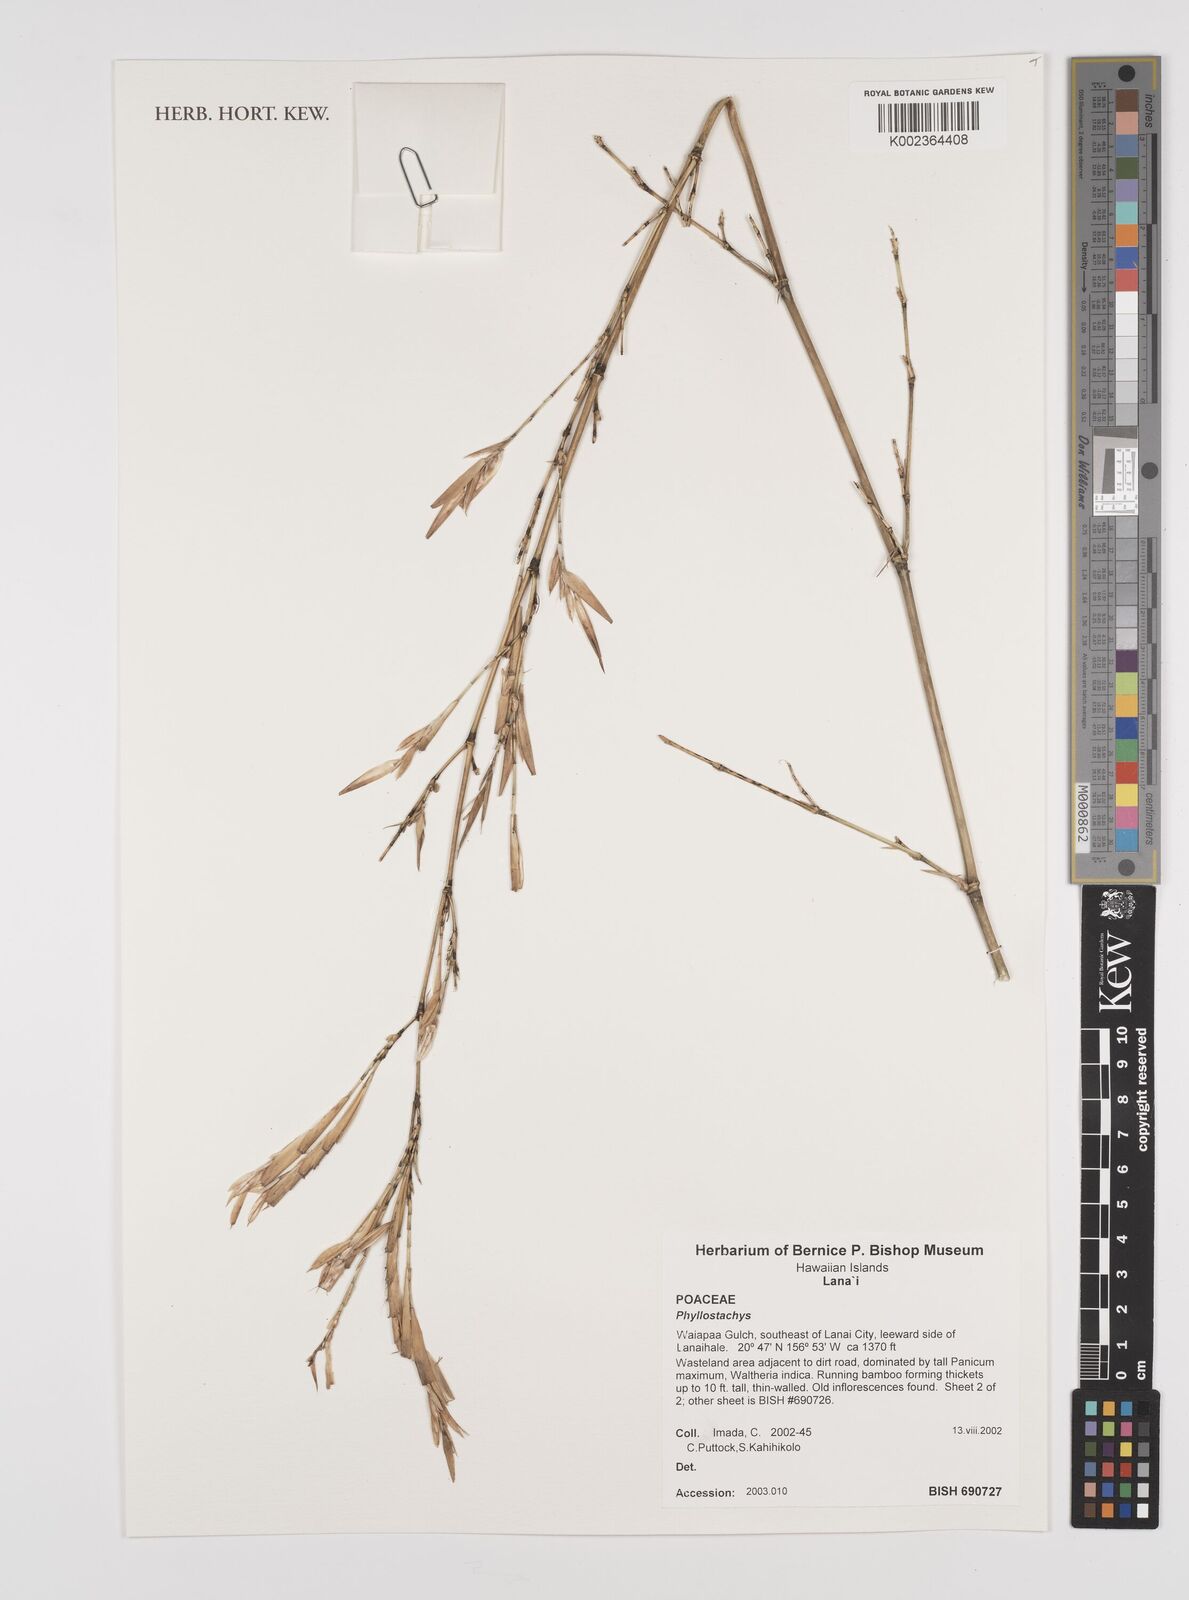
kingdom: Plantae
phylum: Tracheophyta
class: Liliopsida
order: Poales
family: Poaceae
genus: Phyllostachys
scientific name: Phyllostachys
